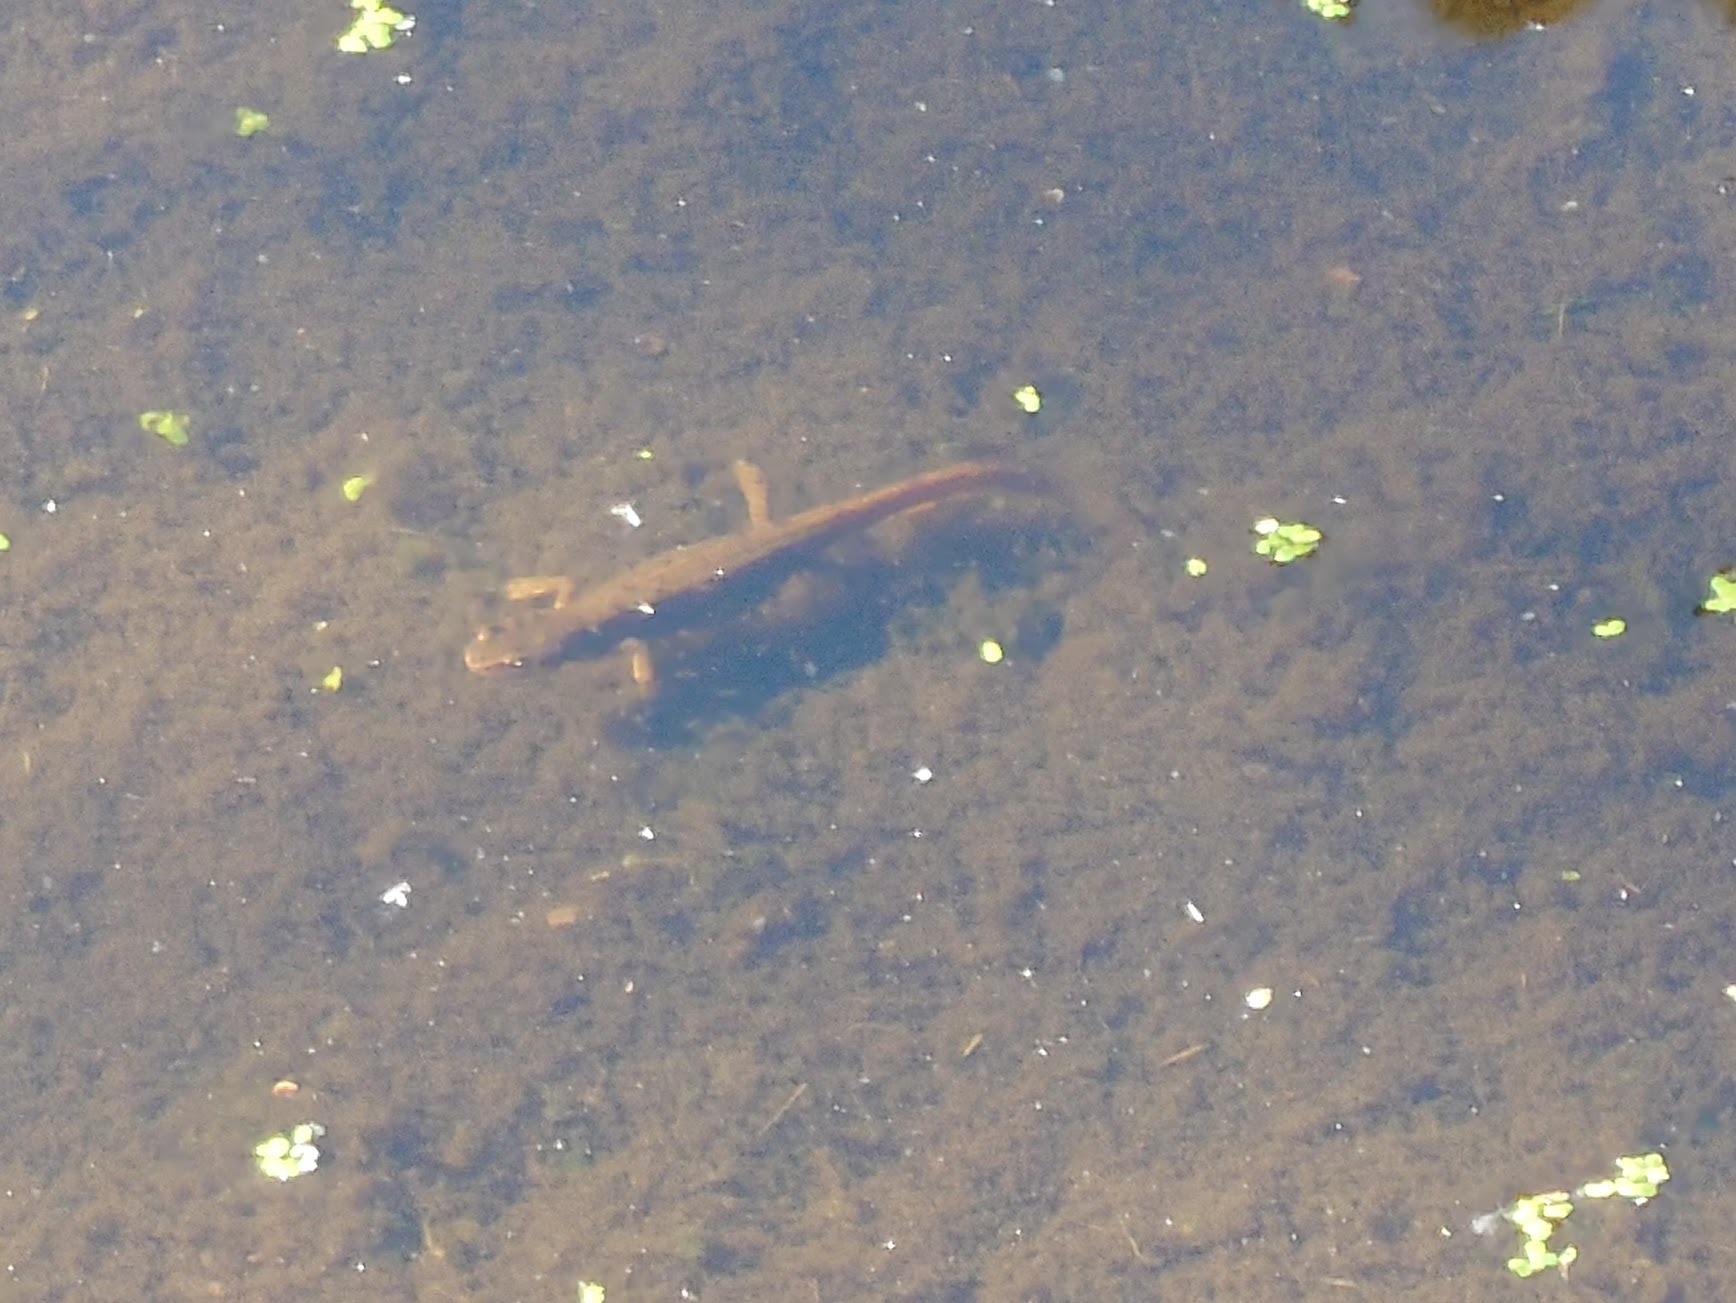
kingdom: Animalia
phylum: Chordata
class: Amphibia
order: Caudata
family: Salamandridae
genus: Lissotriton
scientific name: Lissotriton vulgaris
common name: Lille vandsalamander
